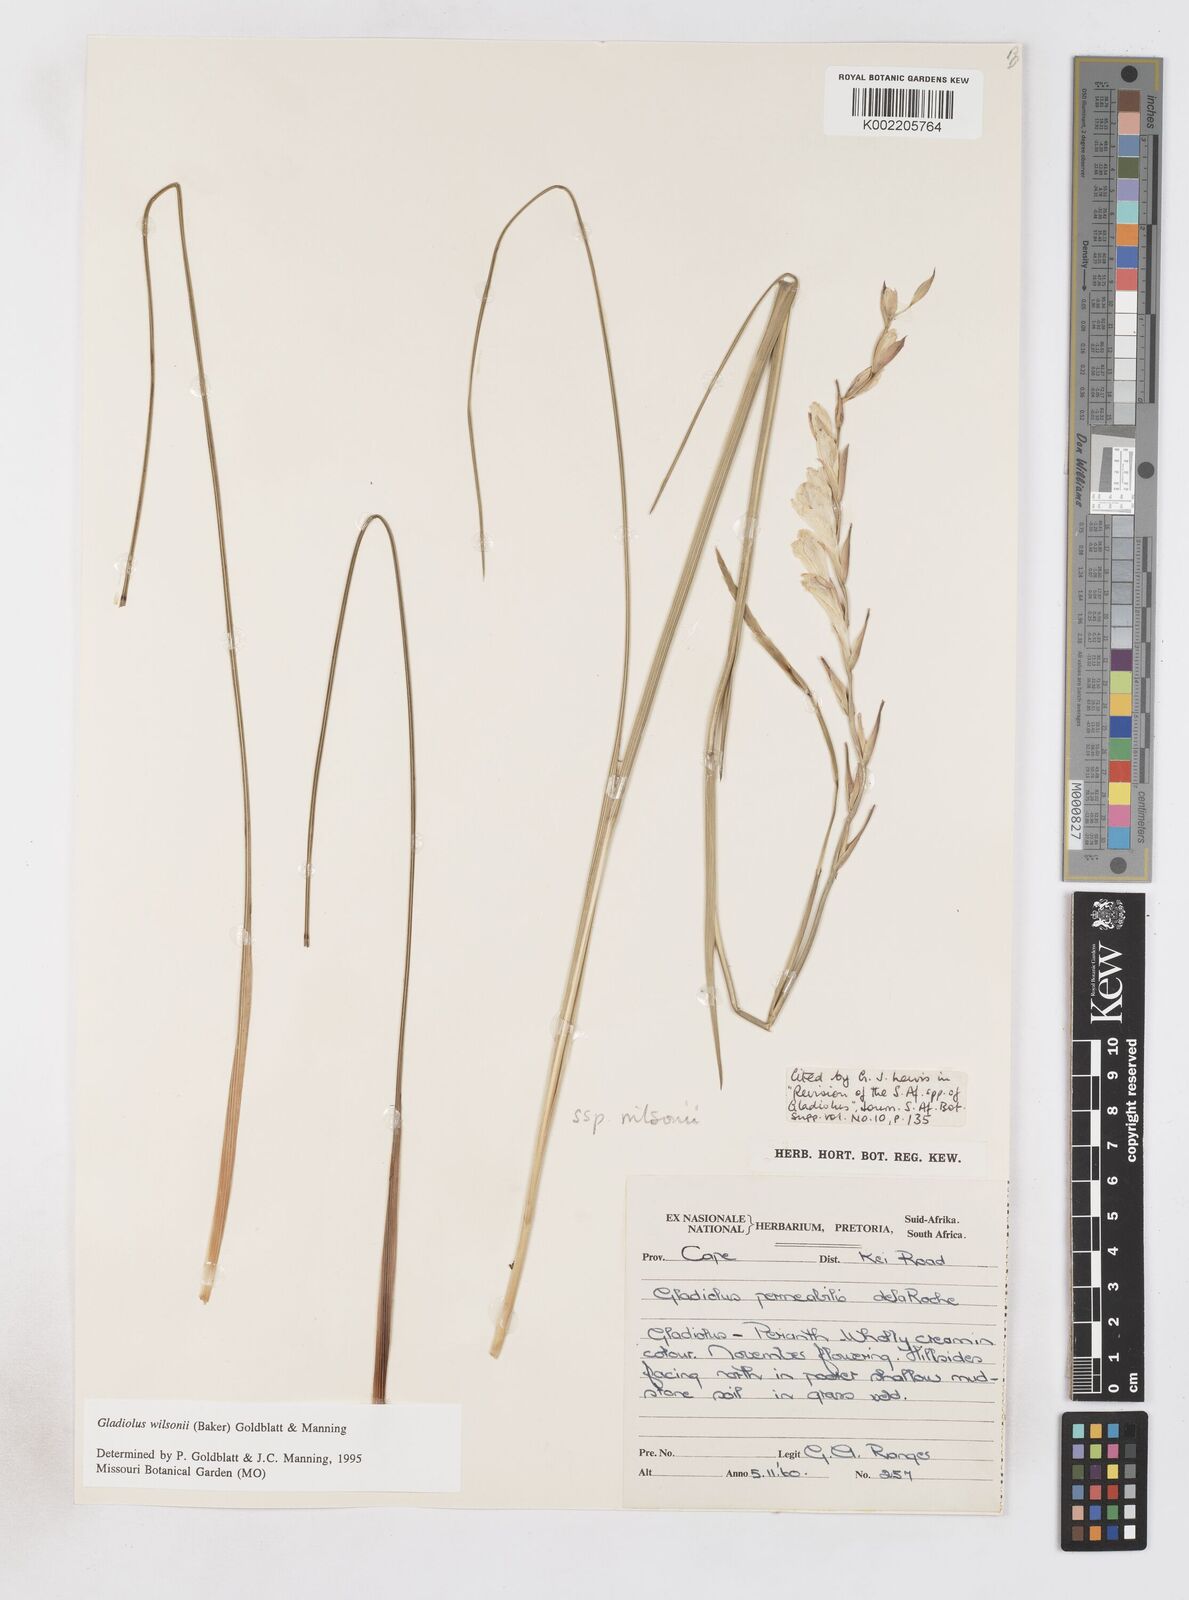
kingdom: Plantae
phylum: Tracheophyta
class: Liliopsida
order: Asparagales
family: Iridaceae
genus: Gladiolus
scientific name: Gladiolus wilsonii
